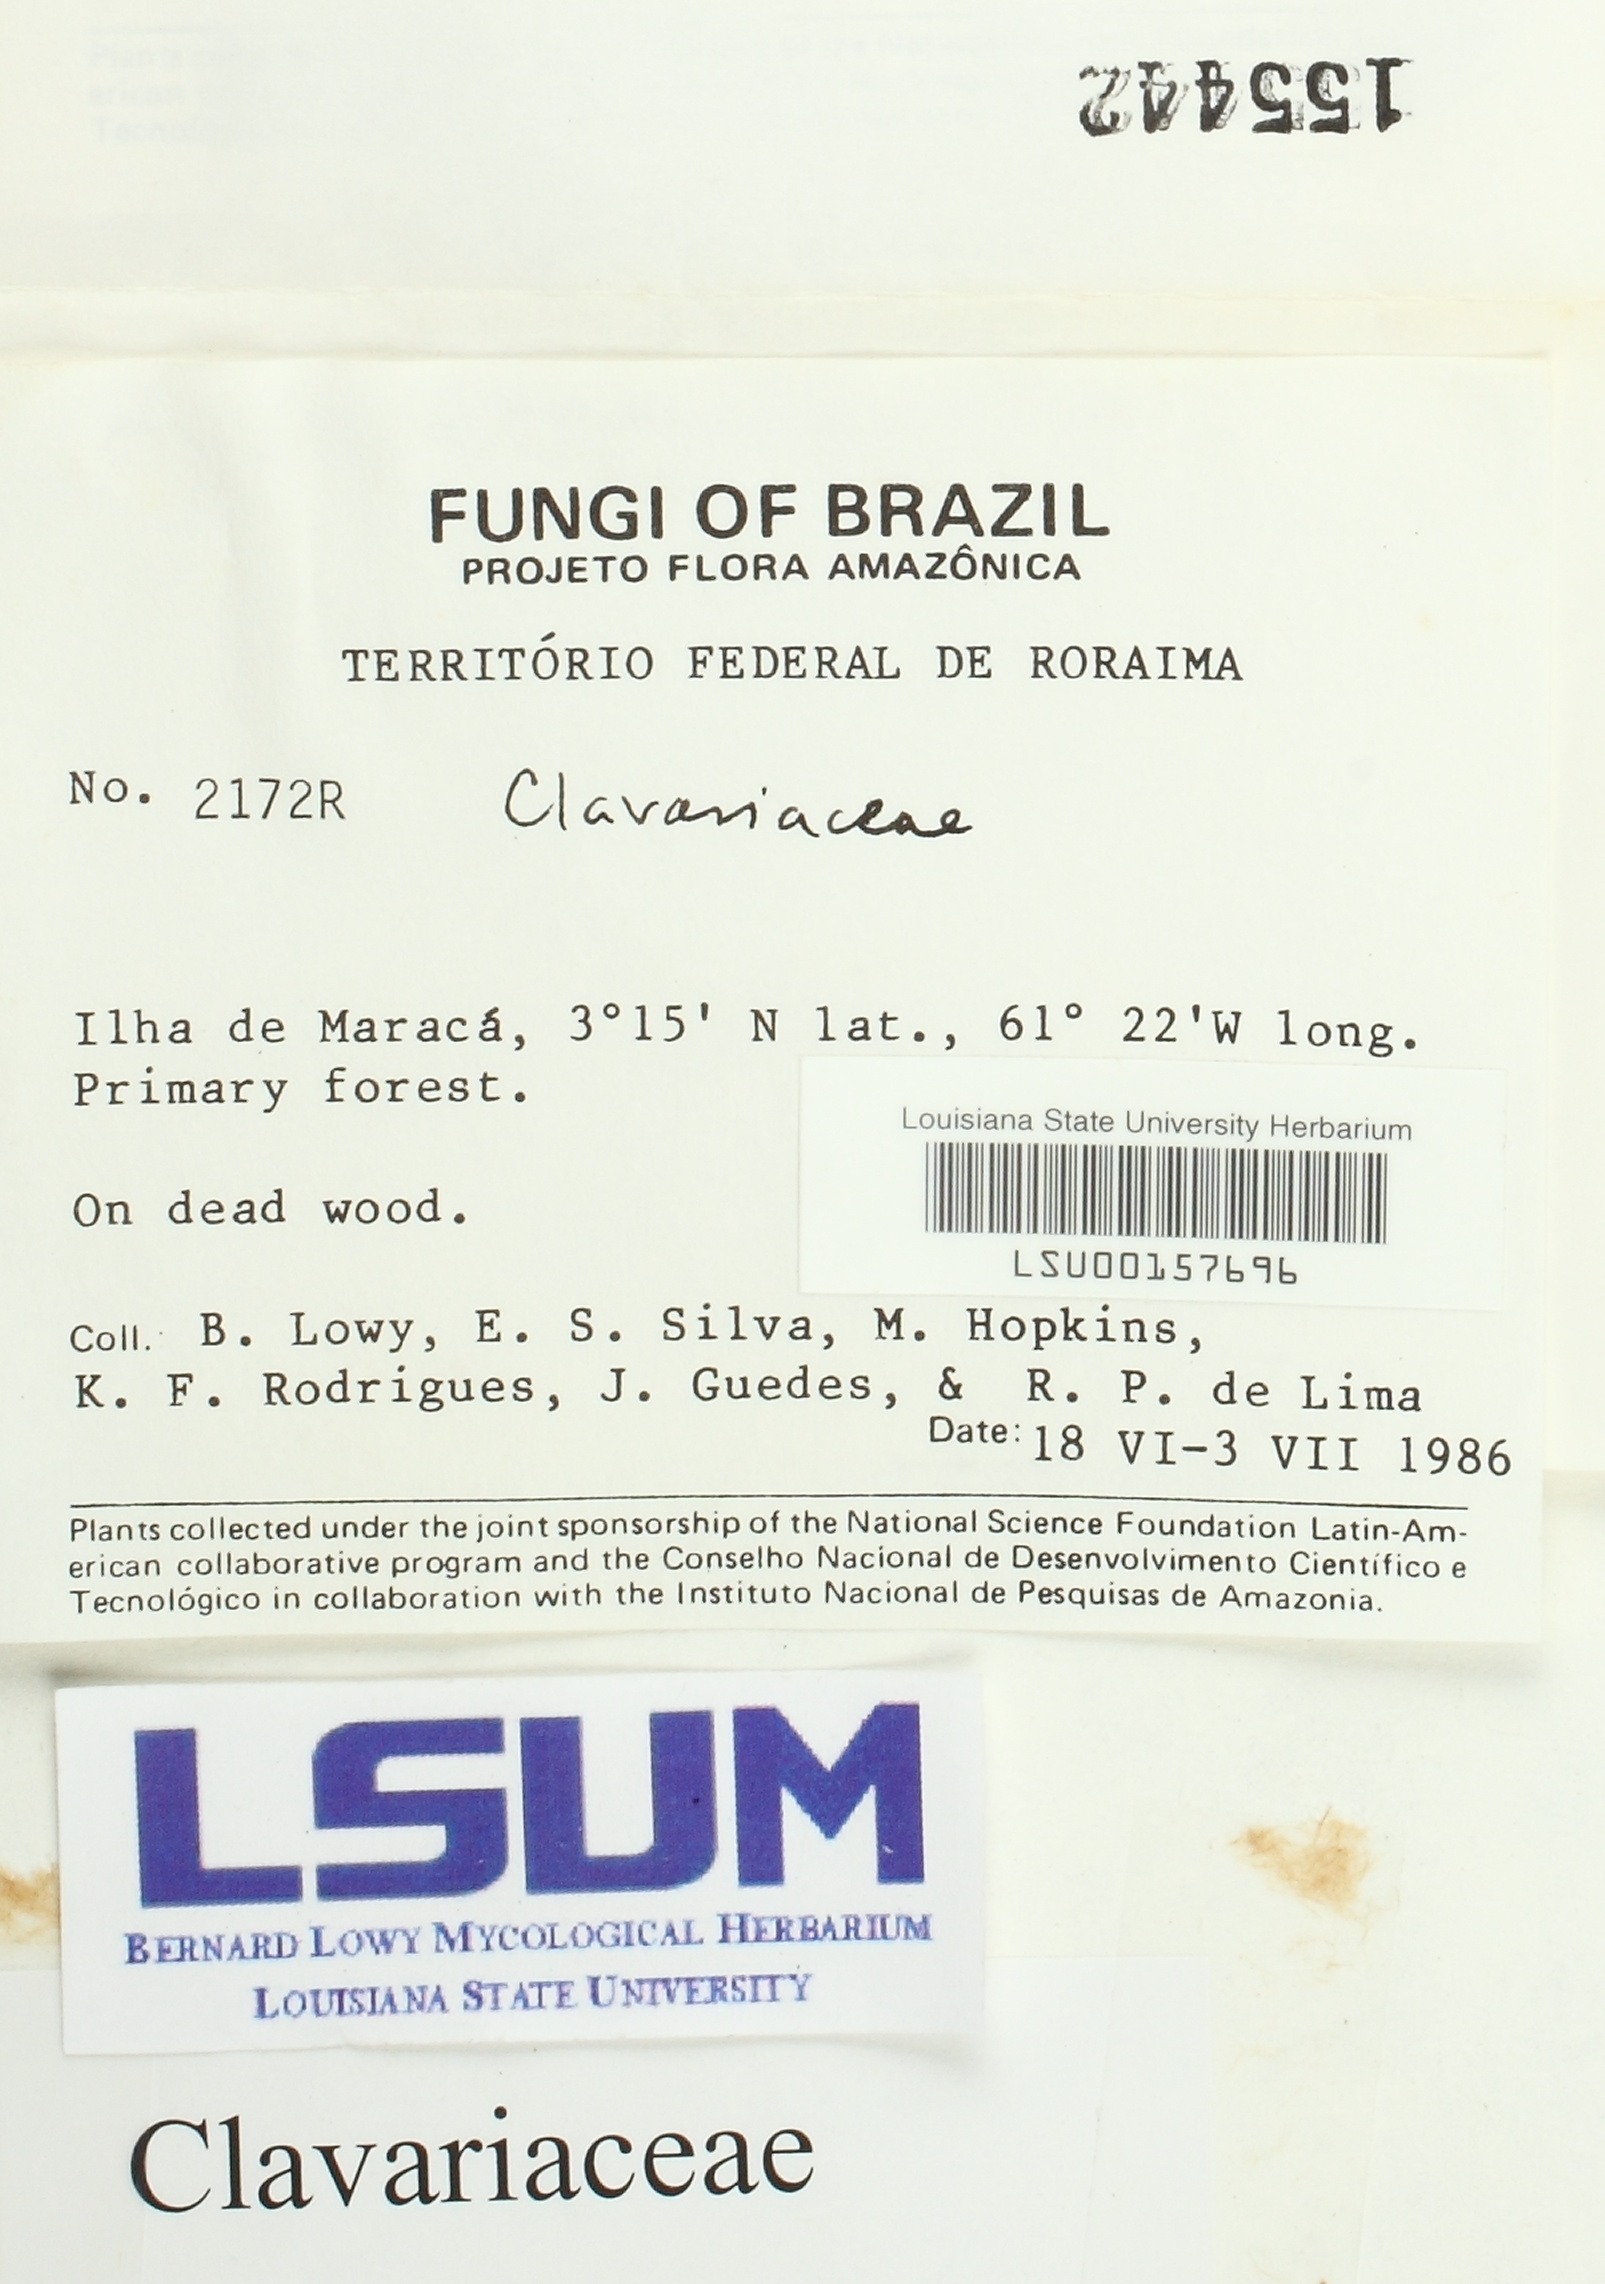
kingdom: Fungi
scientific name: Fungi
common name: Fungi
